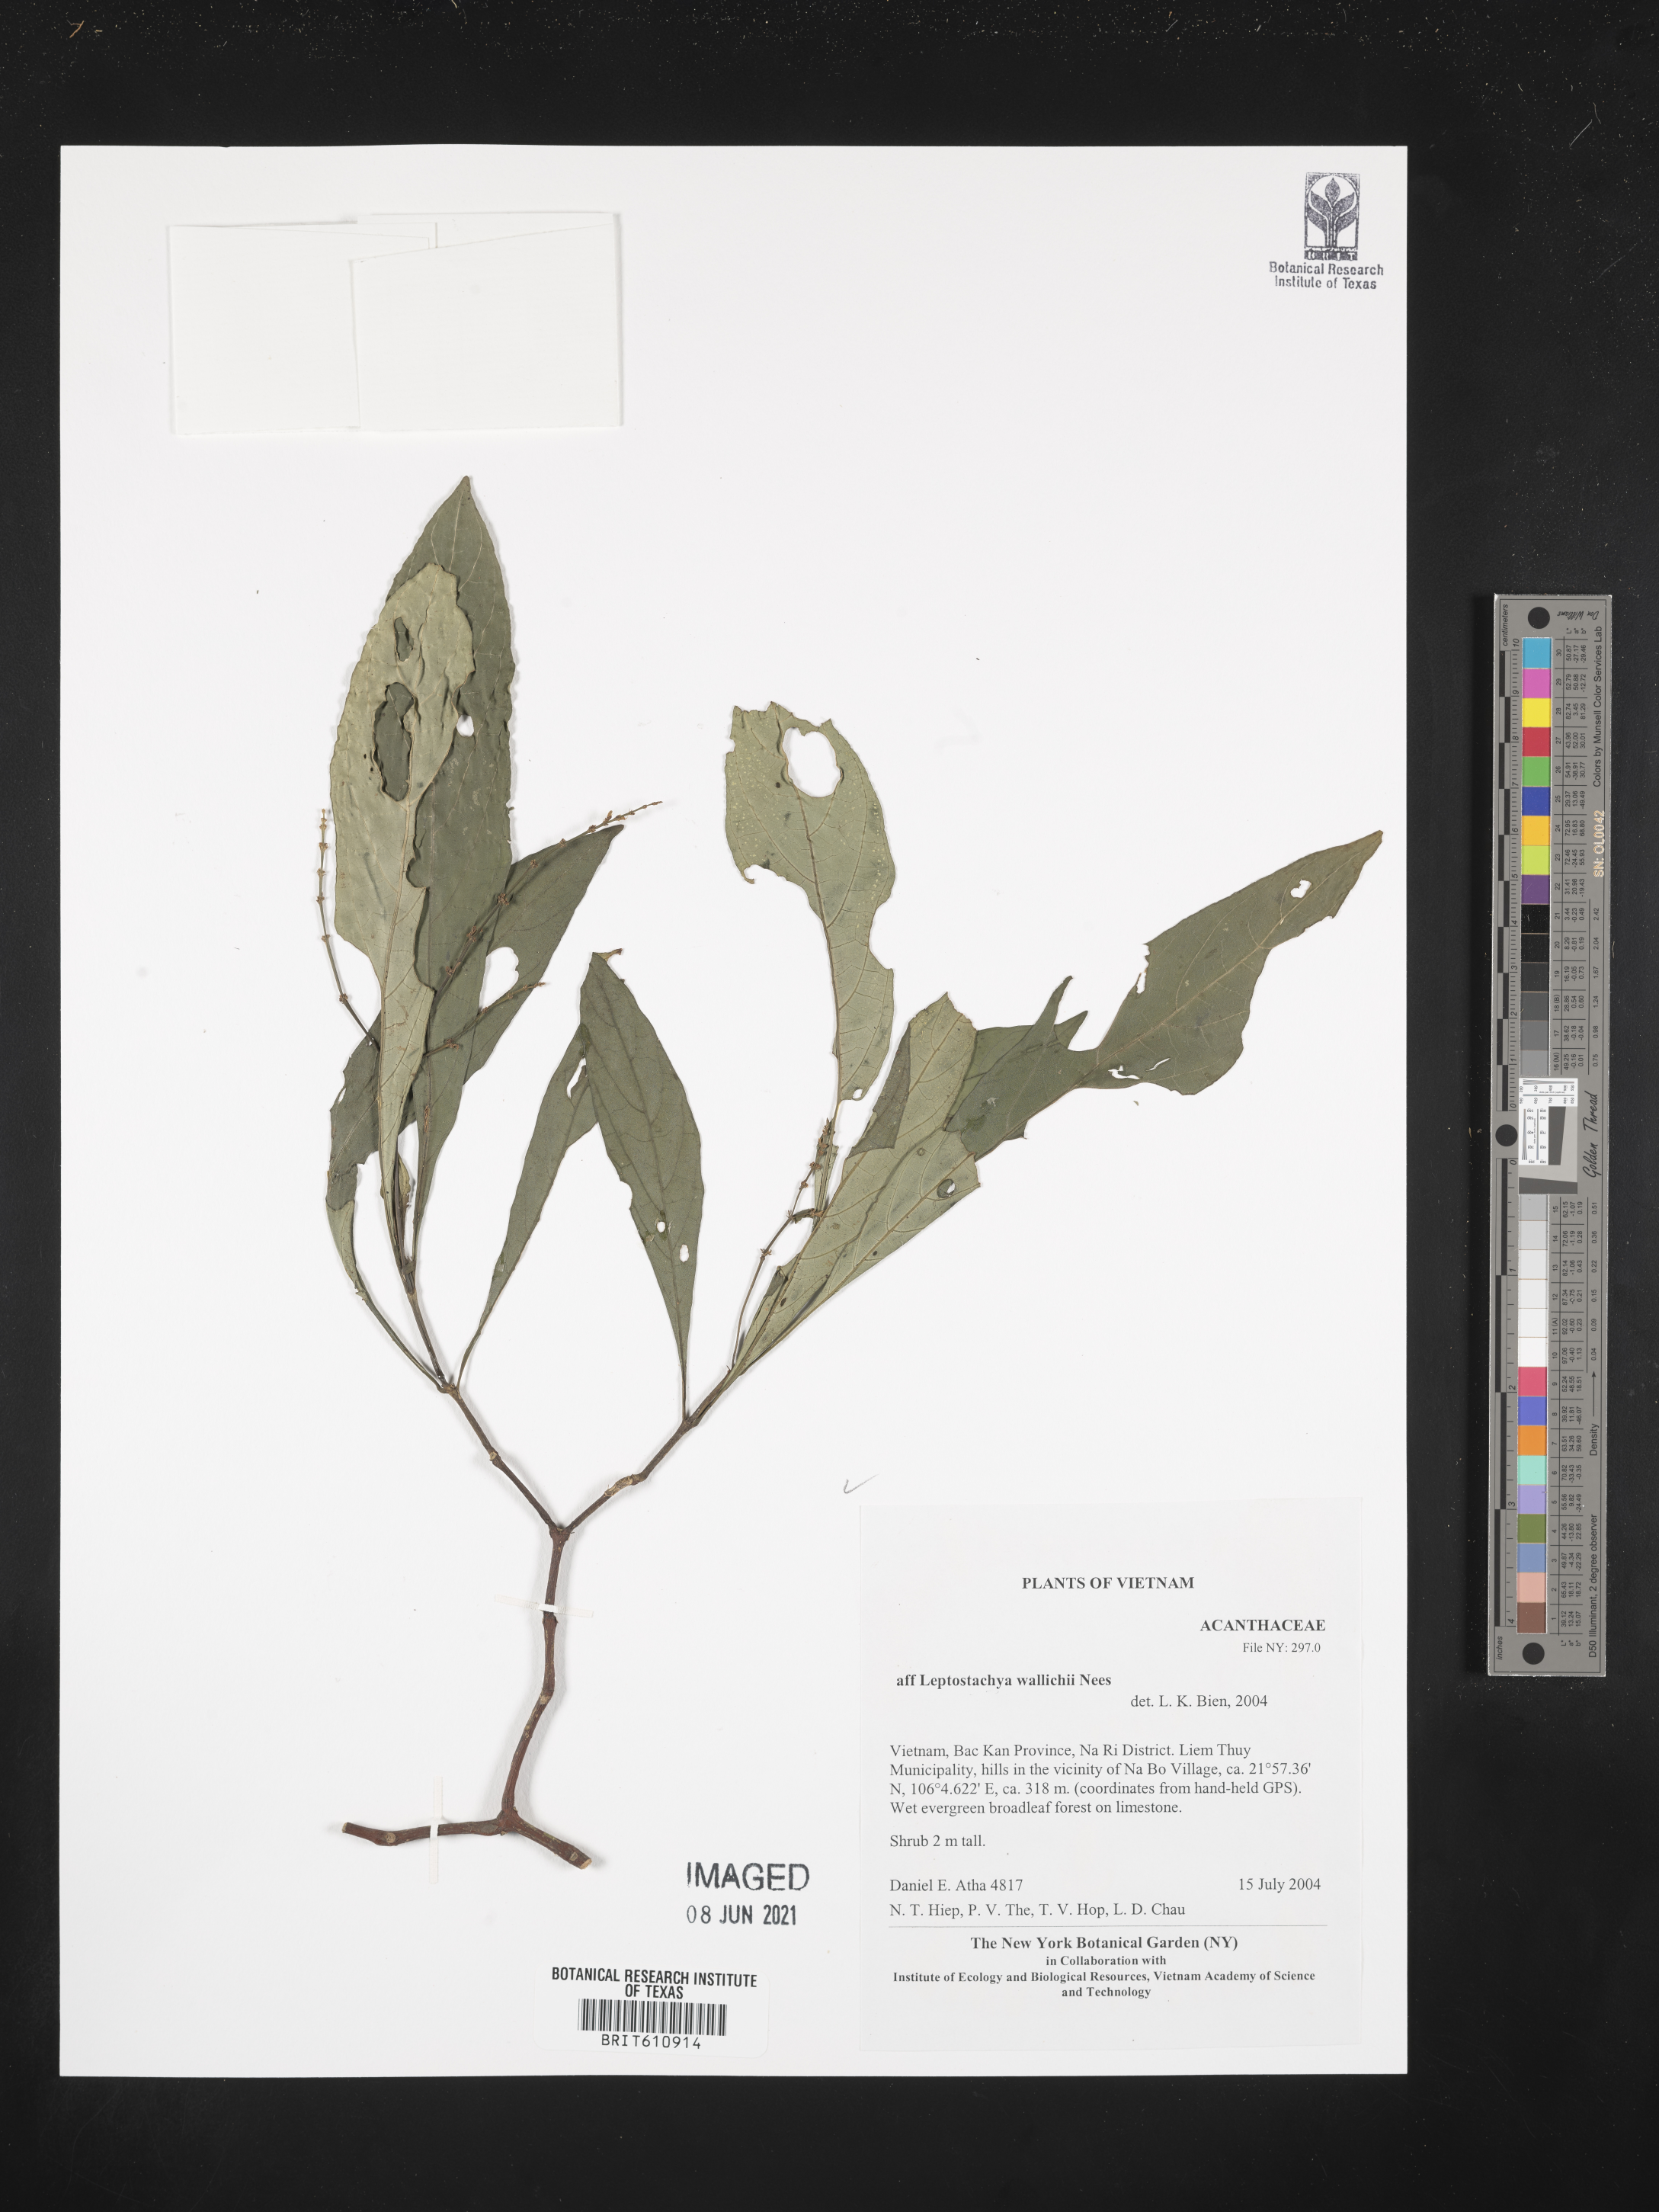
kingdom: Plantae
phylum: Tracheophyta
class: Magnoliopsida
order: Lamiales
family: Acanthaceae
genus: Leptostachya
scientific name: Leptostachya wallichii
